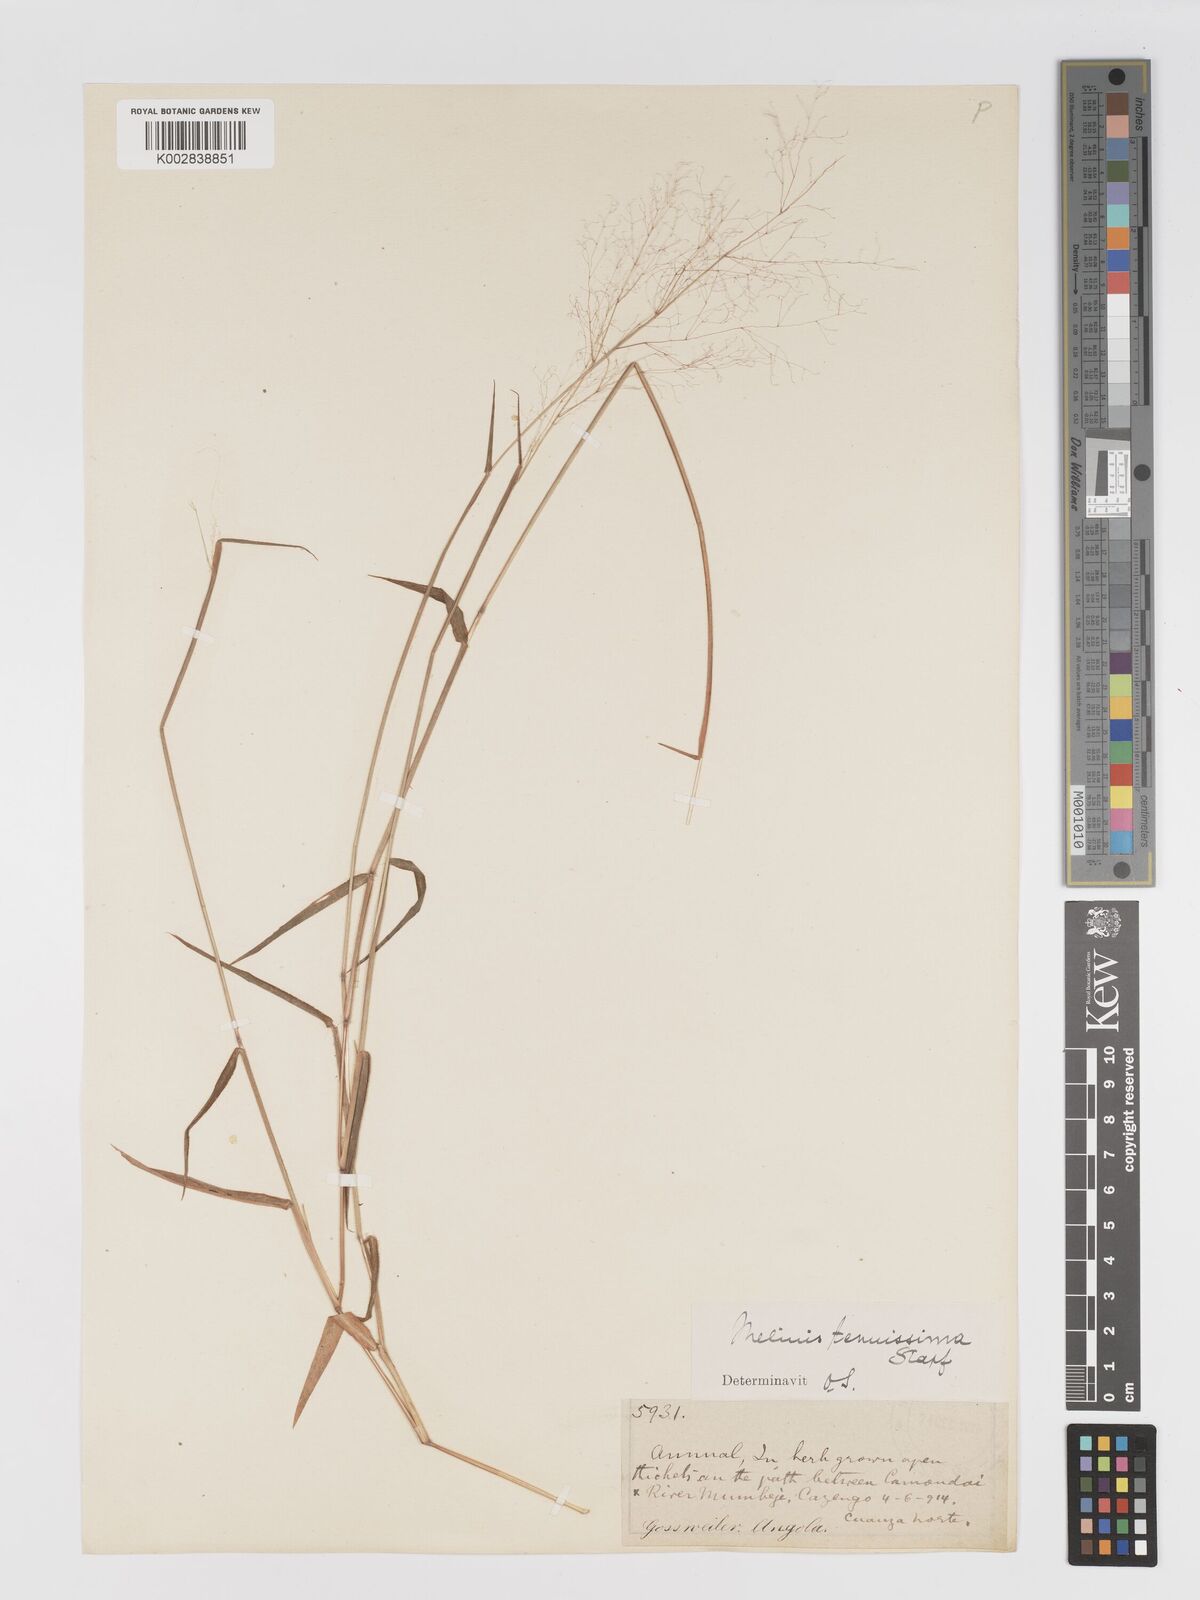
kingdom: Plantae
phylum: Tracheophyta
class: Liliopsida
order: Poales
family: Poaceae
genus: Melinis
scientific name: Melinis tenuissima
